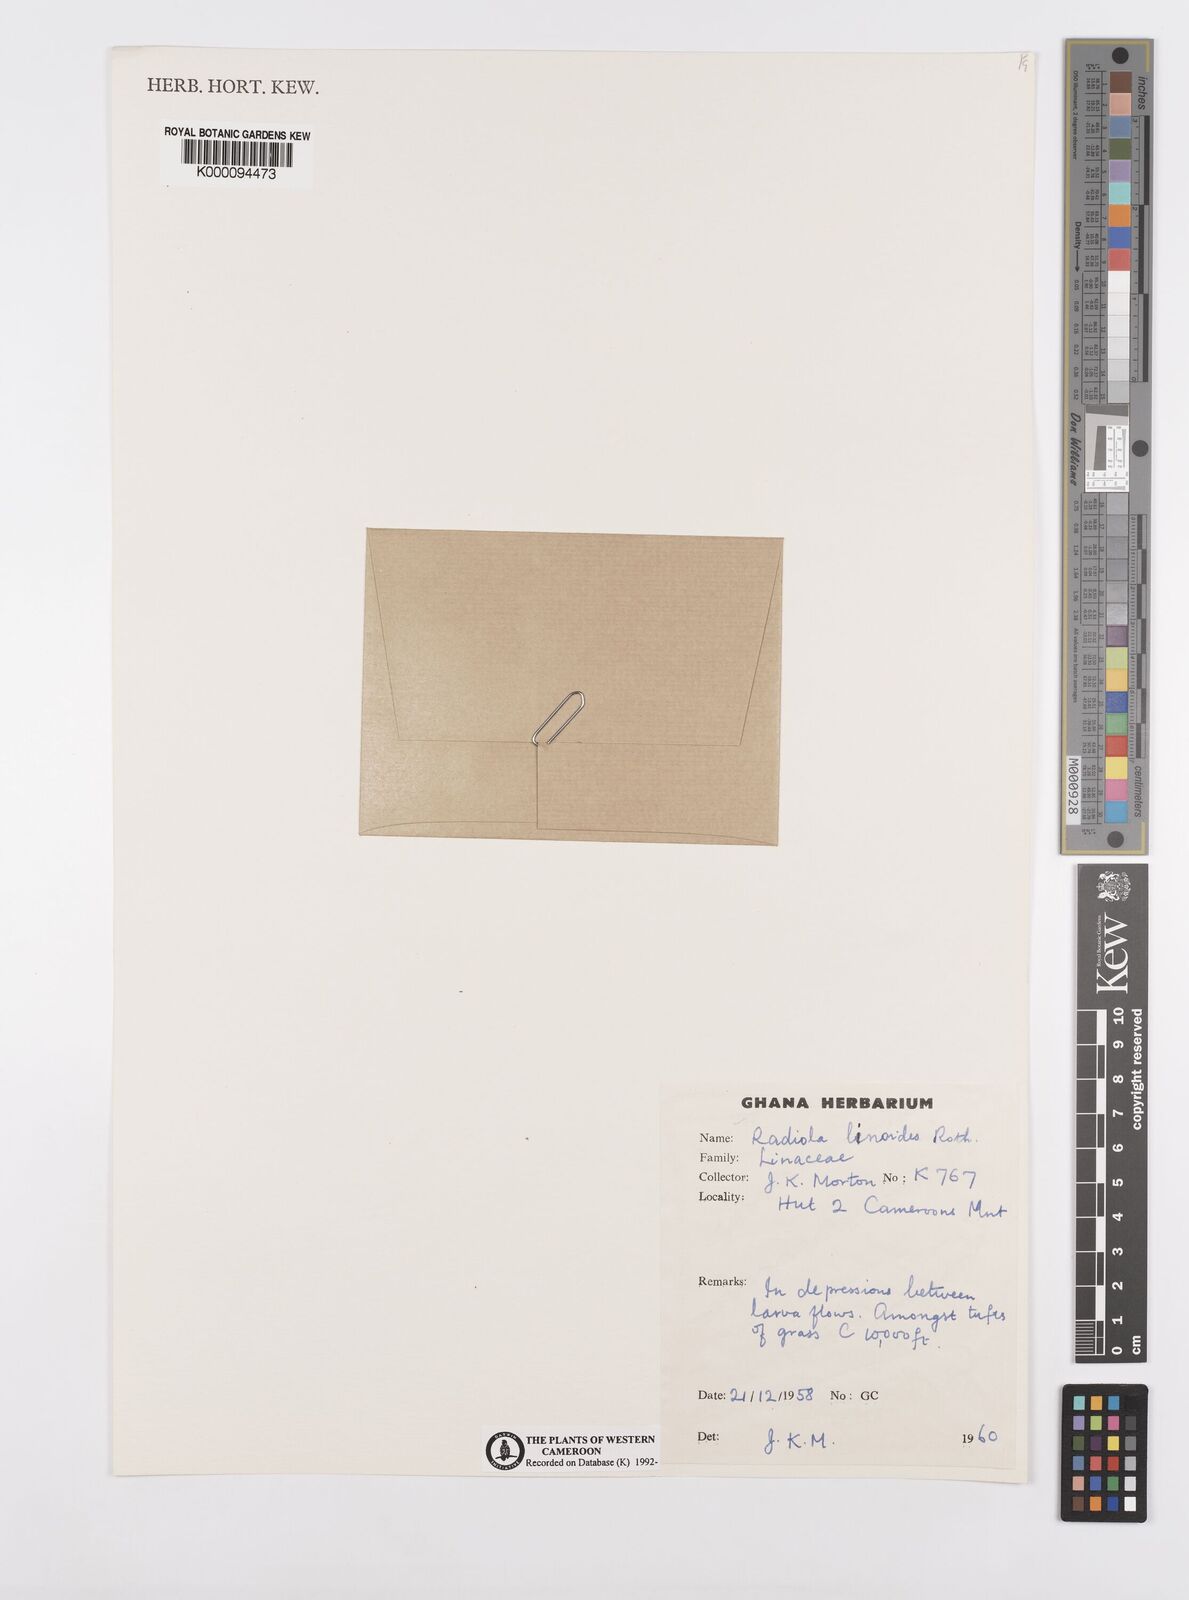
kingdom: Plantae
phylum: Tracheophyta
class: Magnoliopsida
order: Malpighiales
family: Linaceae
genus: Radiola
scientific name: Radiola linoides
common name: Allseed
